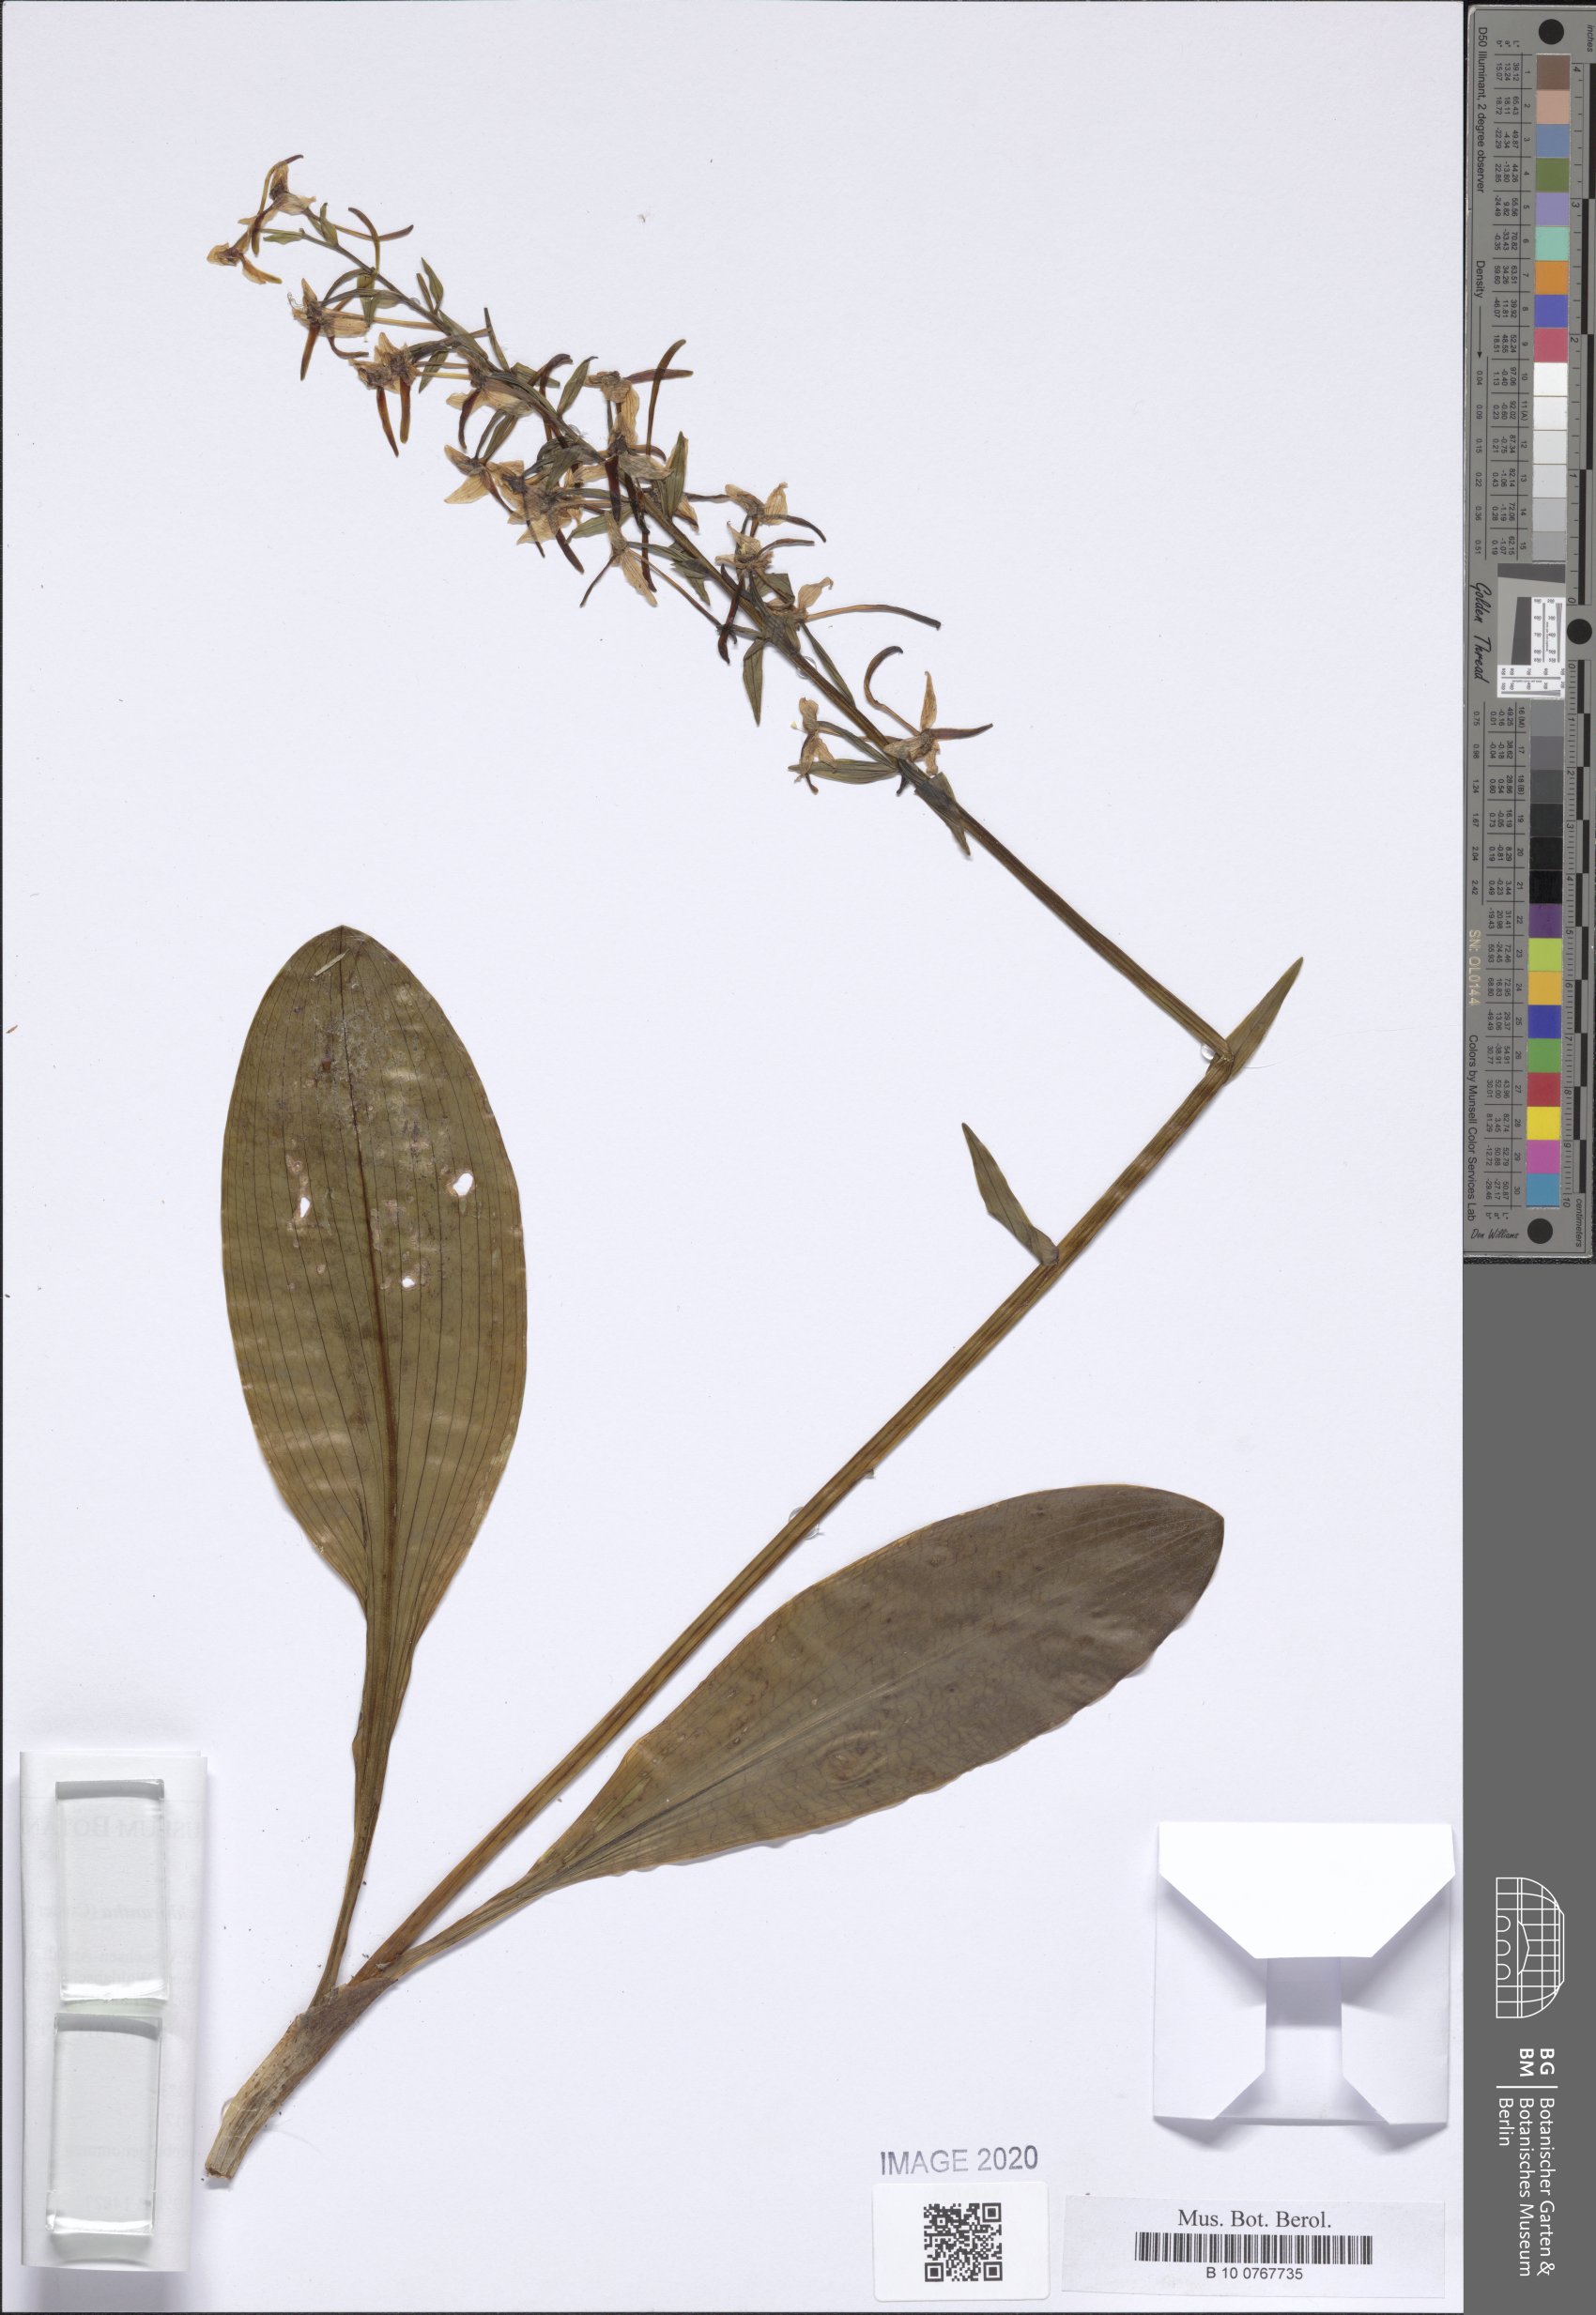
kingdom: Plantae
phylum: Tracheophyta
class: Liliopsida
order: Asparagales
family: Orchidaceae
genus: Platanthera
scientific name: Platanthera chlorantha
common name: Greater butterfly-orchid
